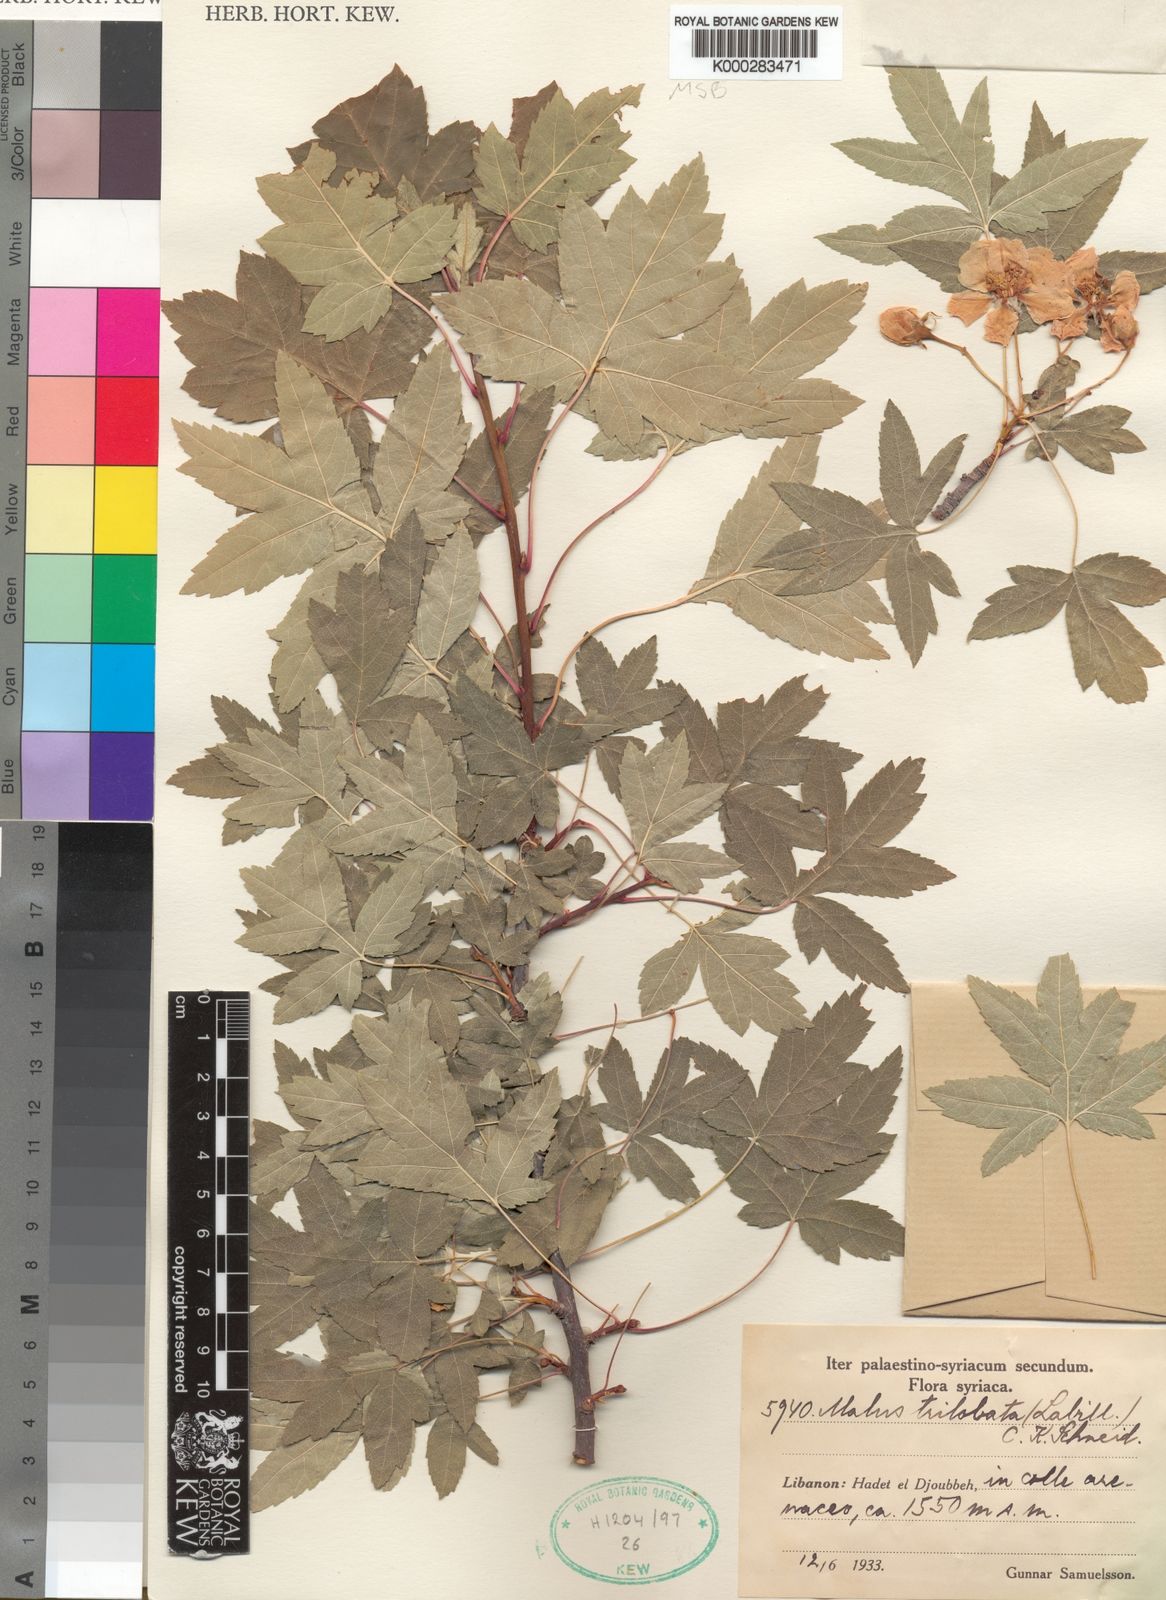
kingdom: Plantae
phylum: Tracheophyta
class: Magnoliopsida
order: Rosales
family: Rosaceae
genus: Eriolobus
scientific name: Eriolobus trilobatus
